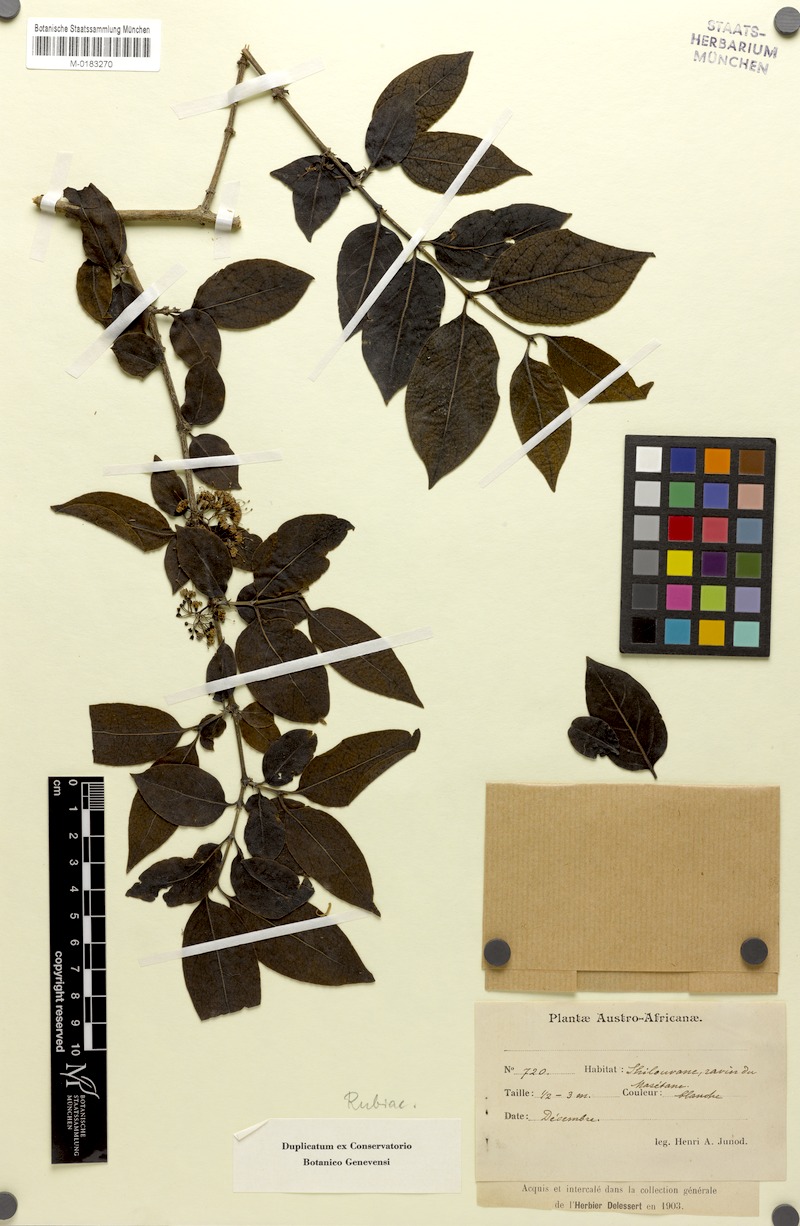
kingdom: Plantae
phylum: Tracheophyta
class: Magnoliopsida
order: Gentianales
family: Rubiaceae
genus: Psydrax
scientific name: Psydrax lividus
